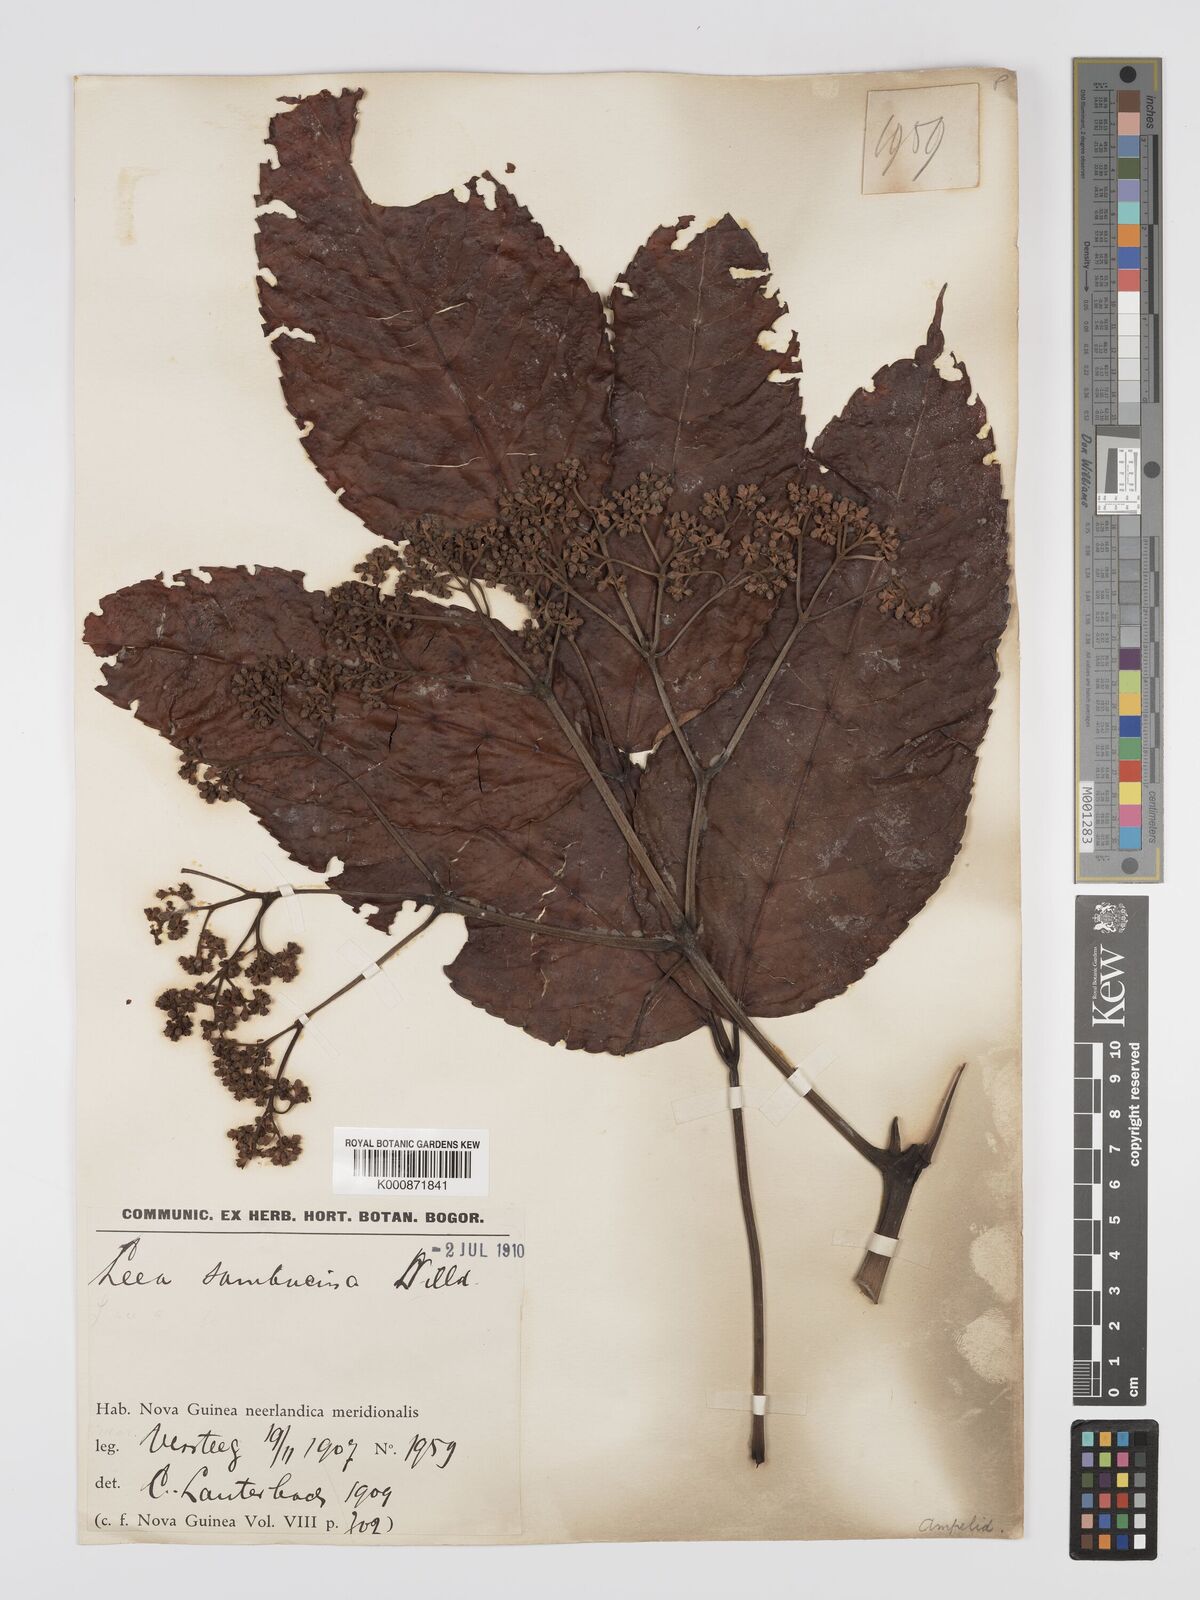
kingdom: Plantae
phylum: Tracheophyta
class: Magnoliopsida
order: Vitales
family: Vitaceae
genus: Leea
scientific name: Leea indica
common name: Bandicoot-berry
